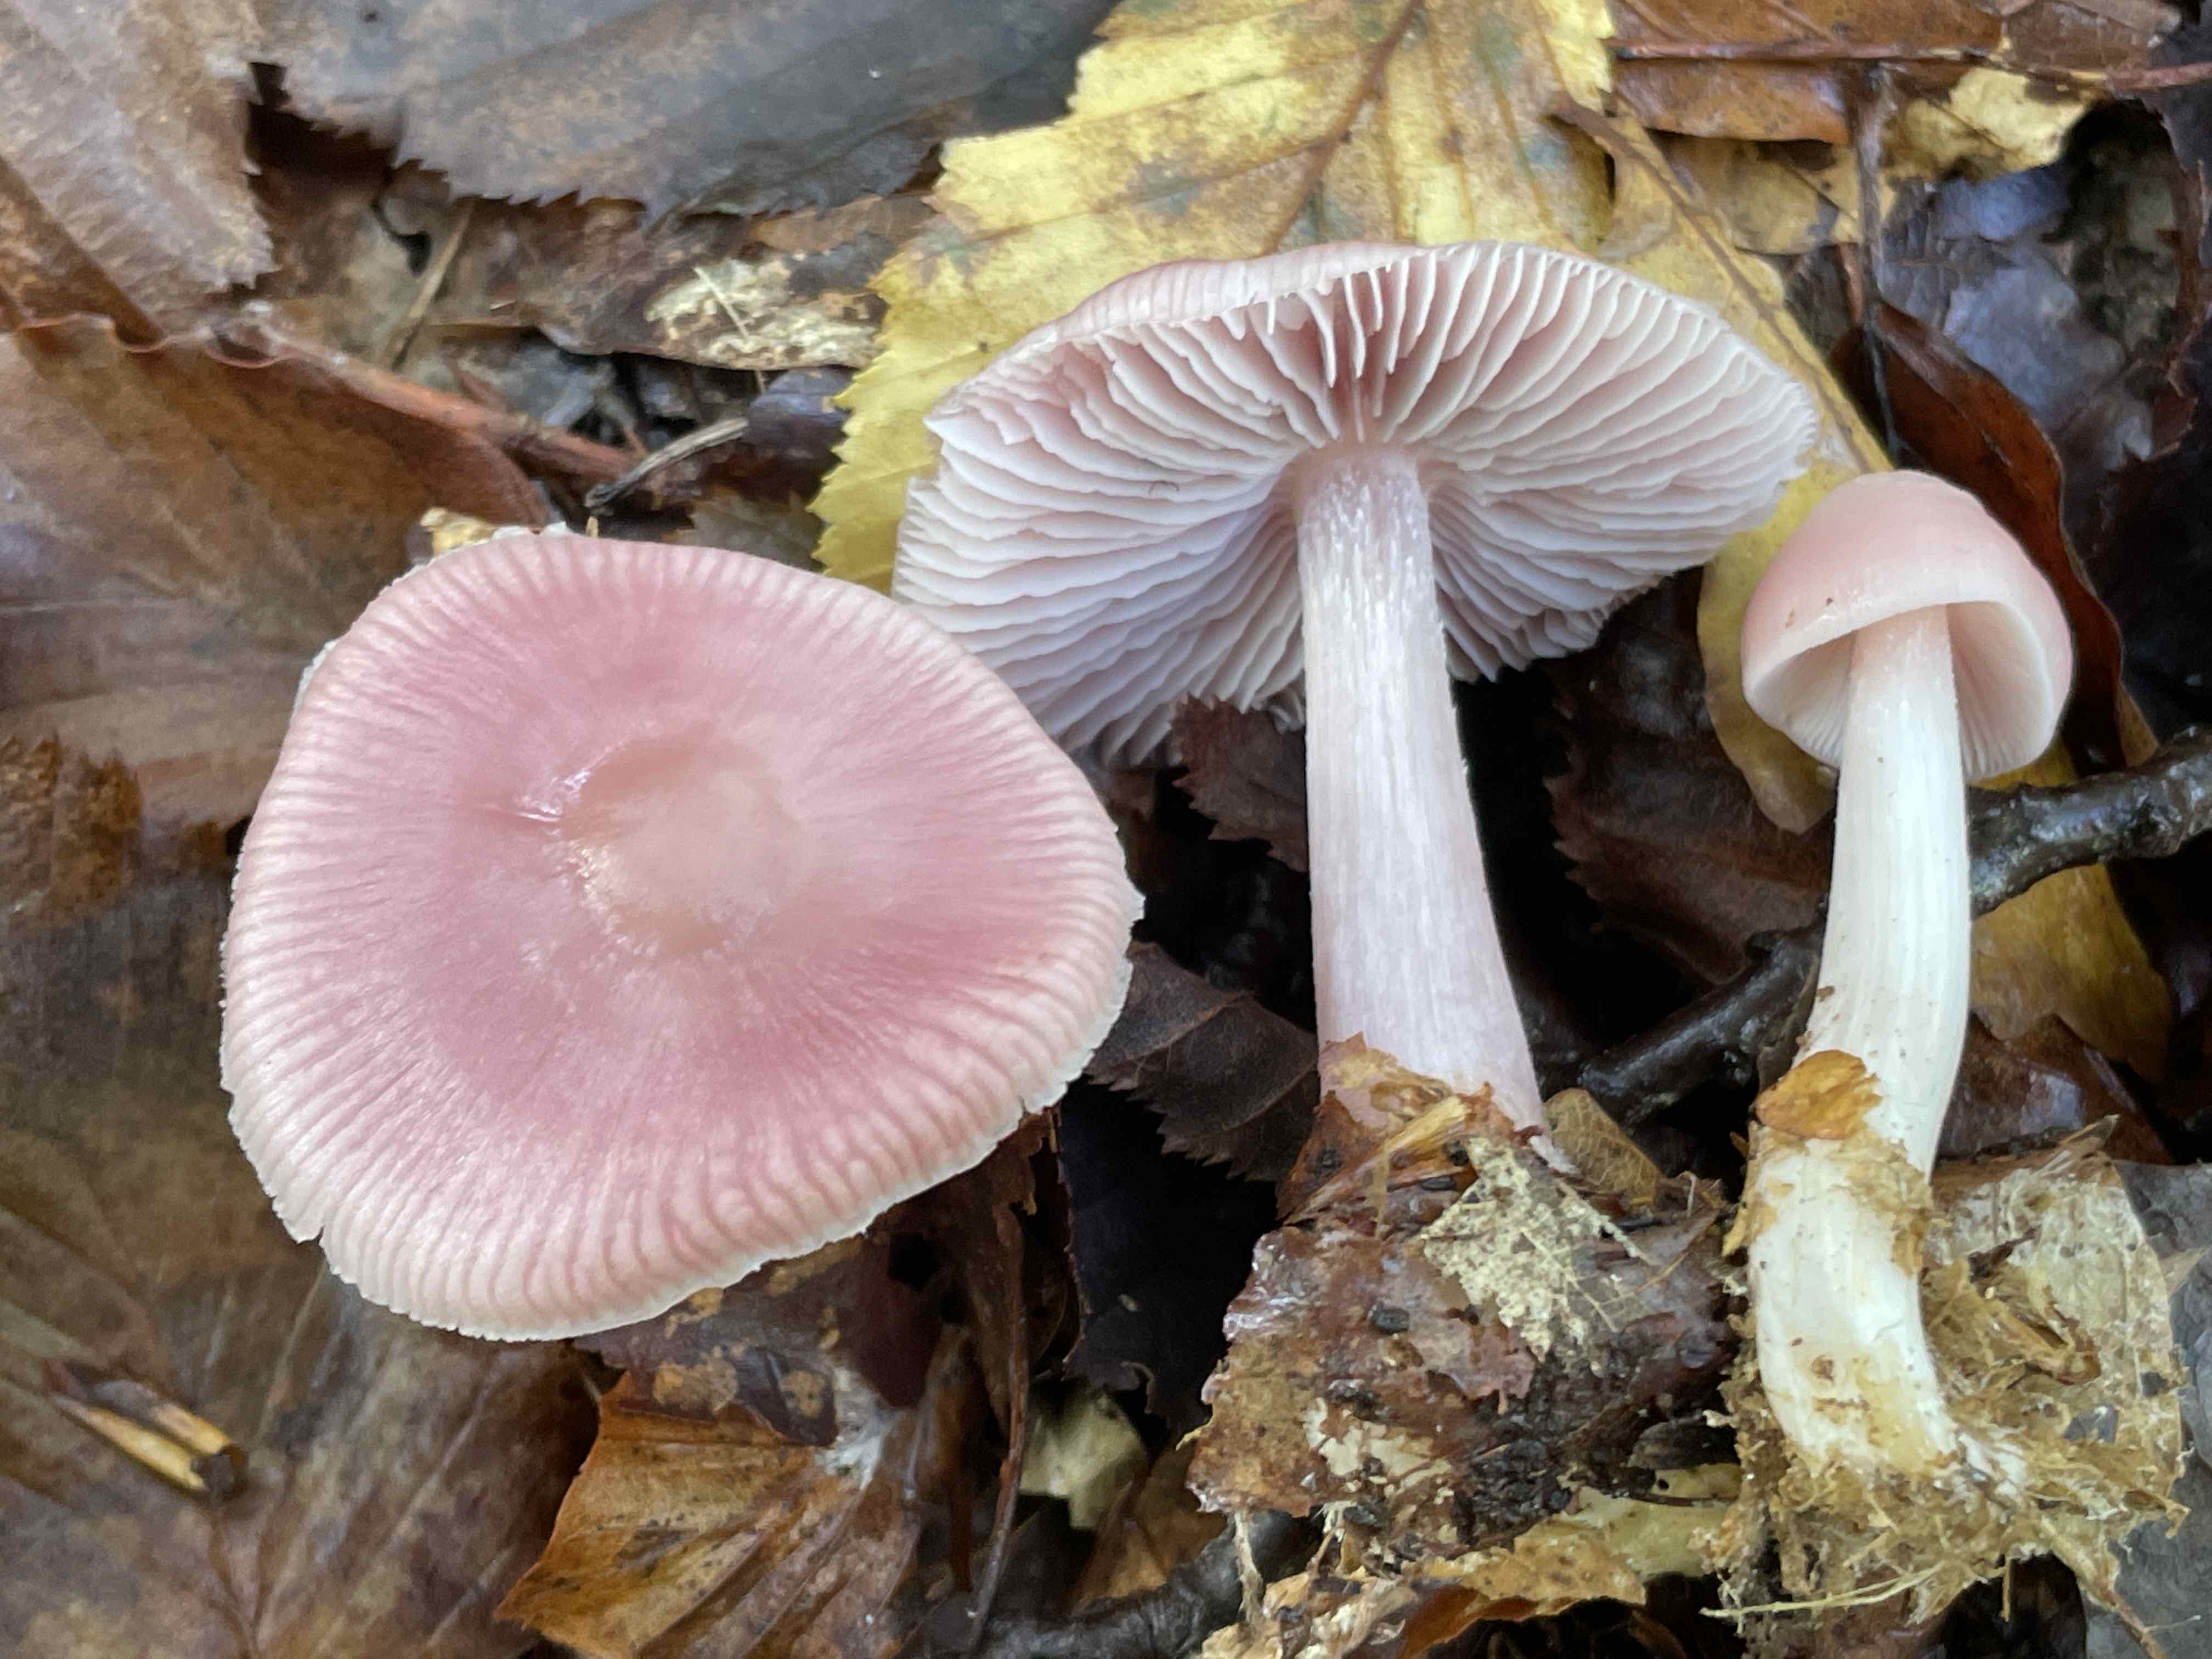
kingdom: Fungi
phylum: Basidiomycota
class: Agaricomycetes
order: Agaricales
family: Mycenaceae
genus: Mycena
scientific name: Mycena rosea
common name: rosa huesvamp
